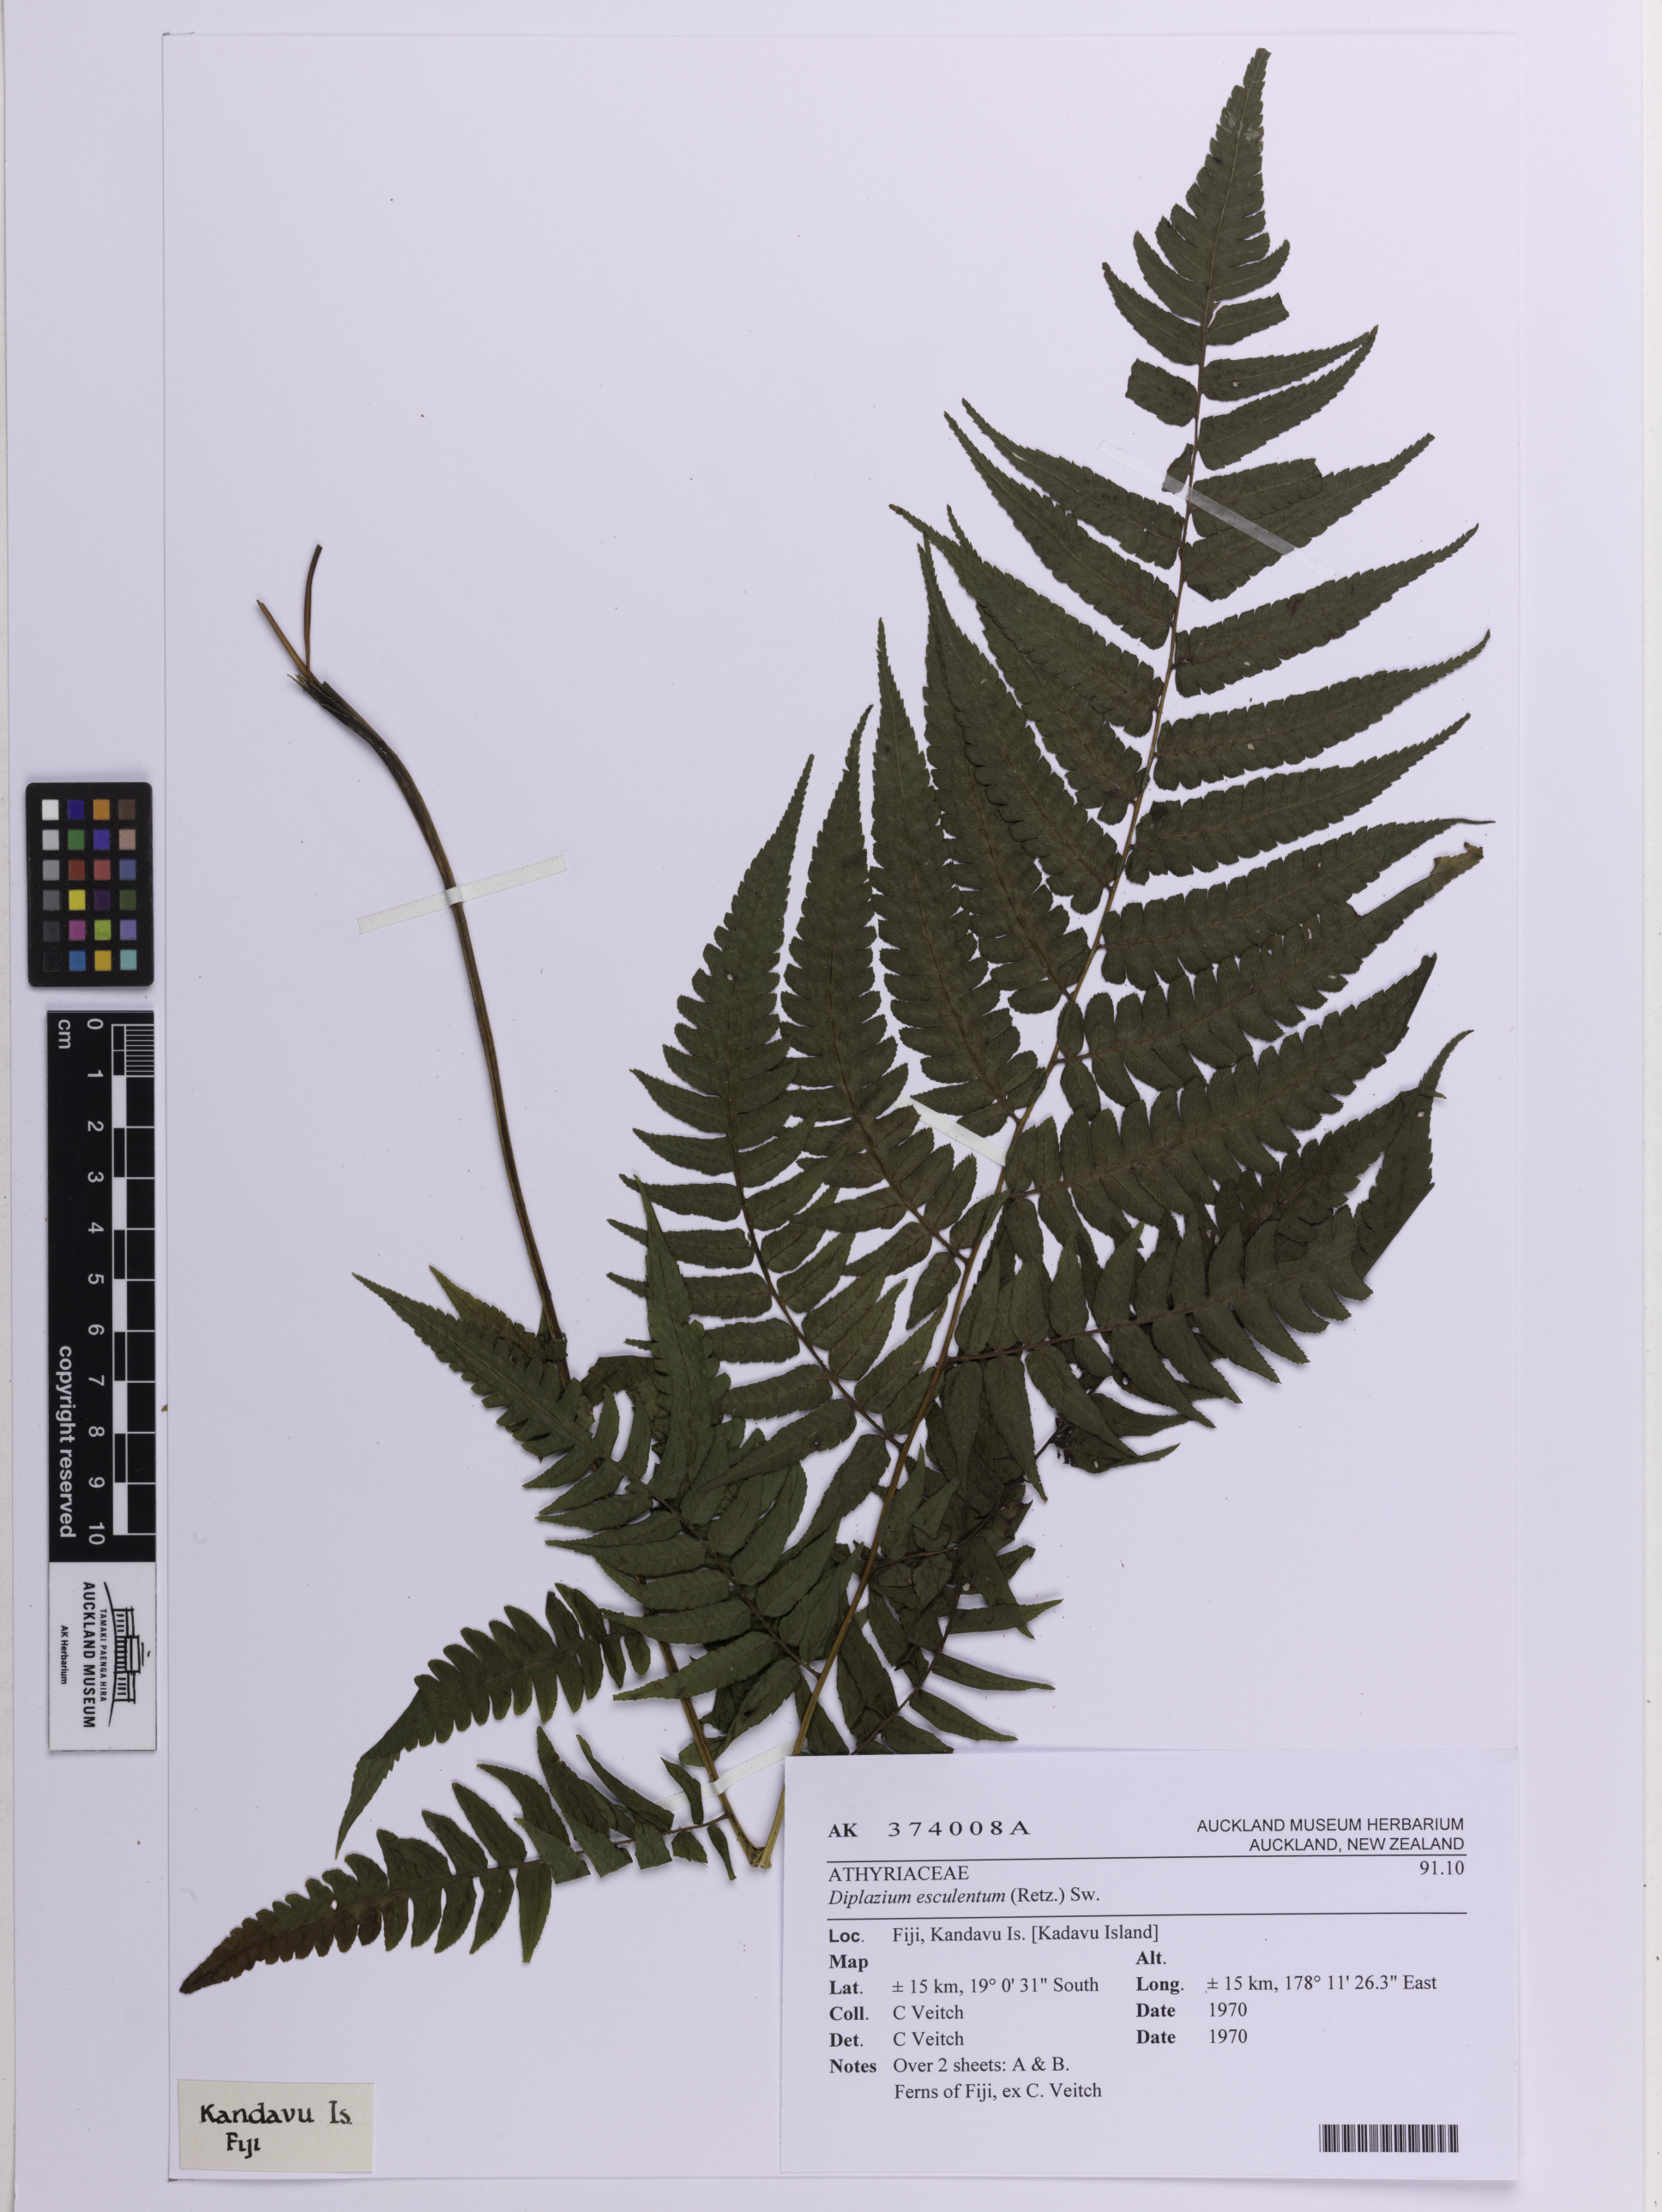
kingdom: Plantae
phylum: Tracheophyta
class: Polypodiopsida
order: Polypodiales
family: Athyriaceae
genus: Diplazium
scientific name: Diplazium esculentum
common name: Vegetable fern
